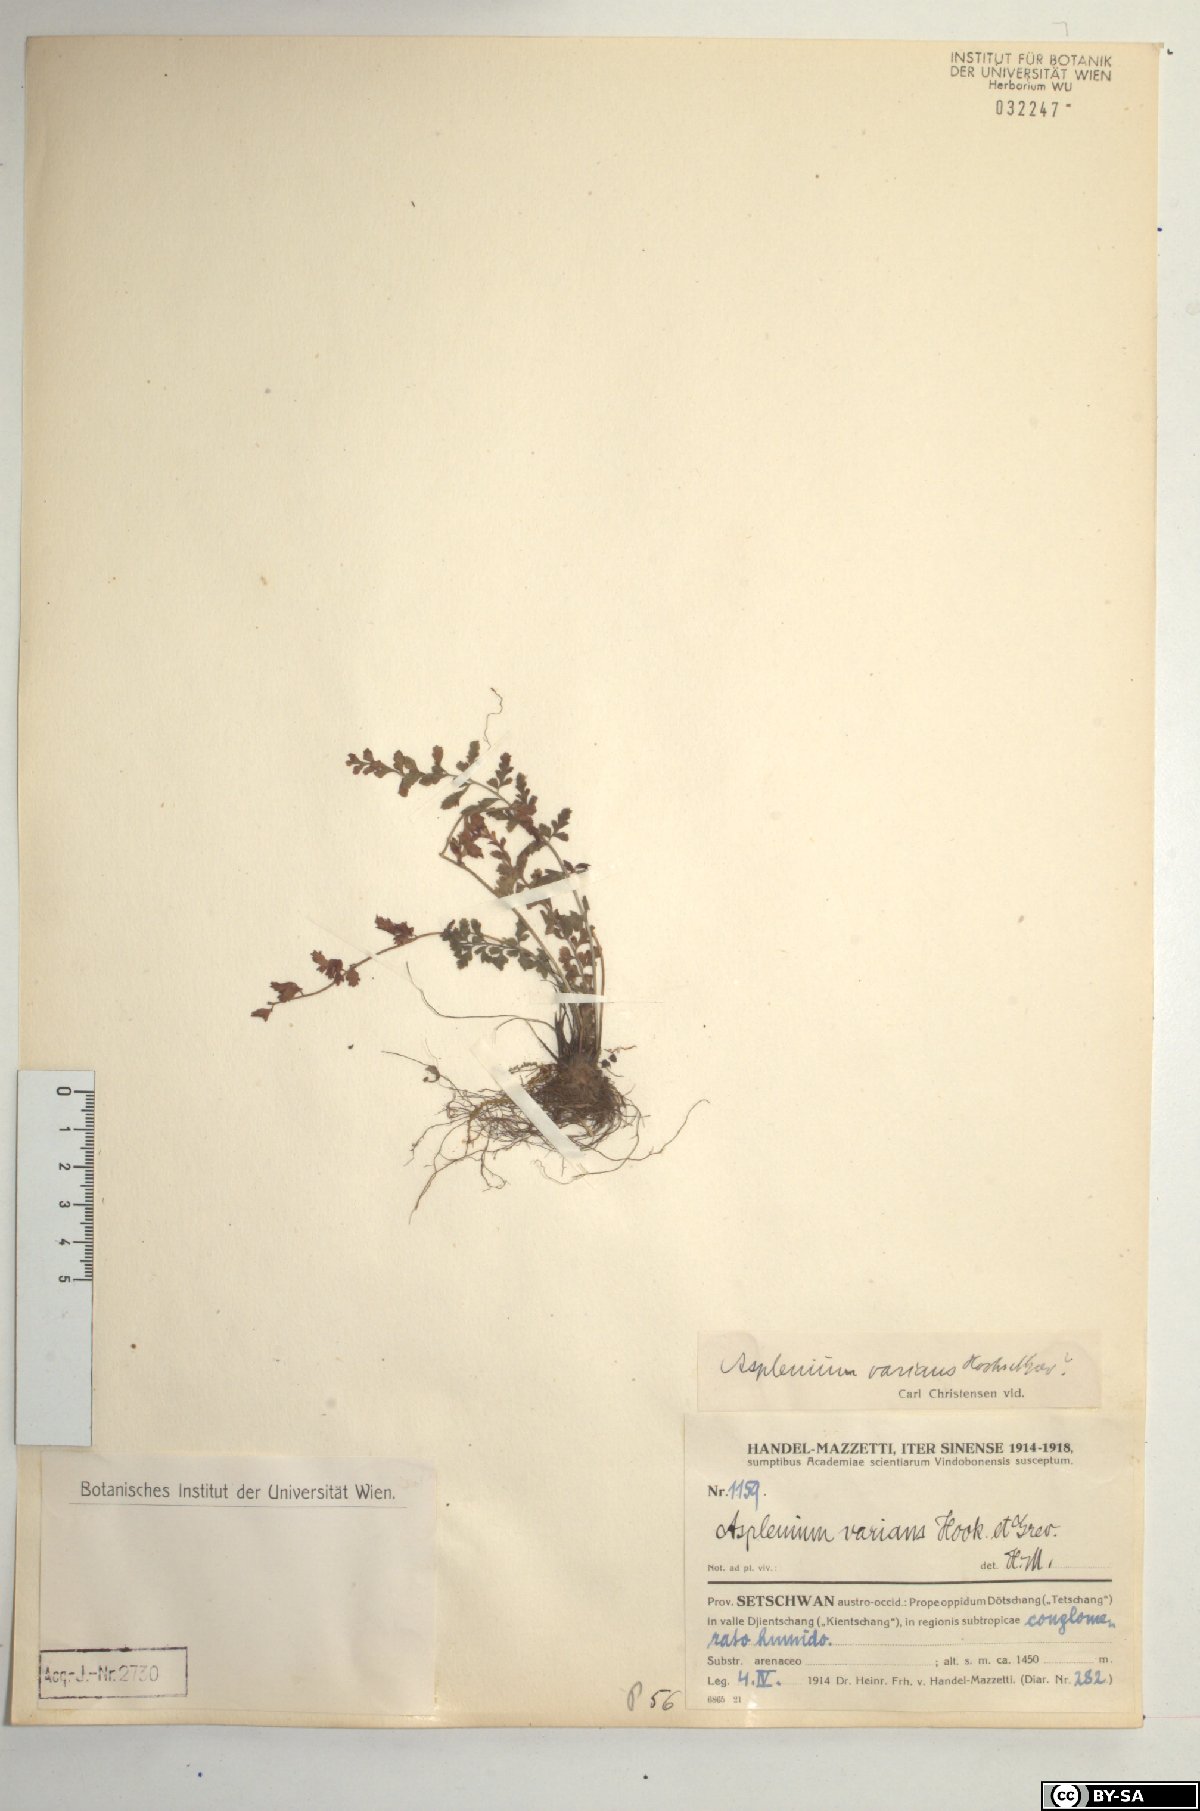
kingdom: Plantae
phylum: Tracheophyta
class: Polypodiopsida
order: Polypodiales
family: Aspleniaceae
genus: Asplenium
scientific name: Asplenium laciniatum
